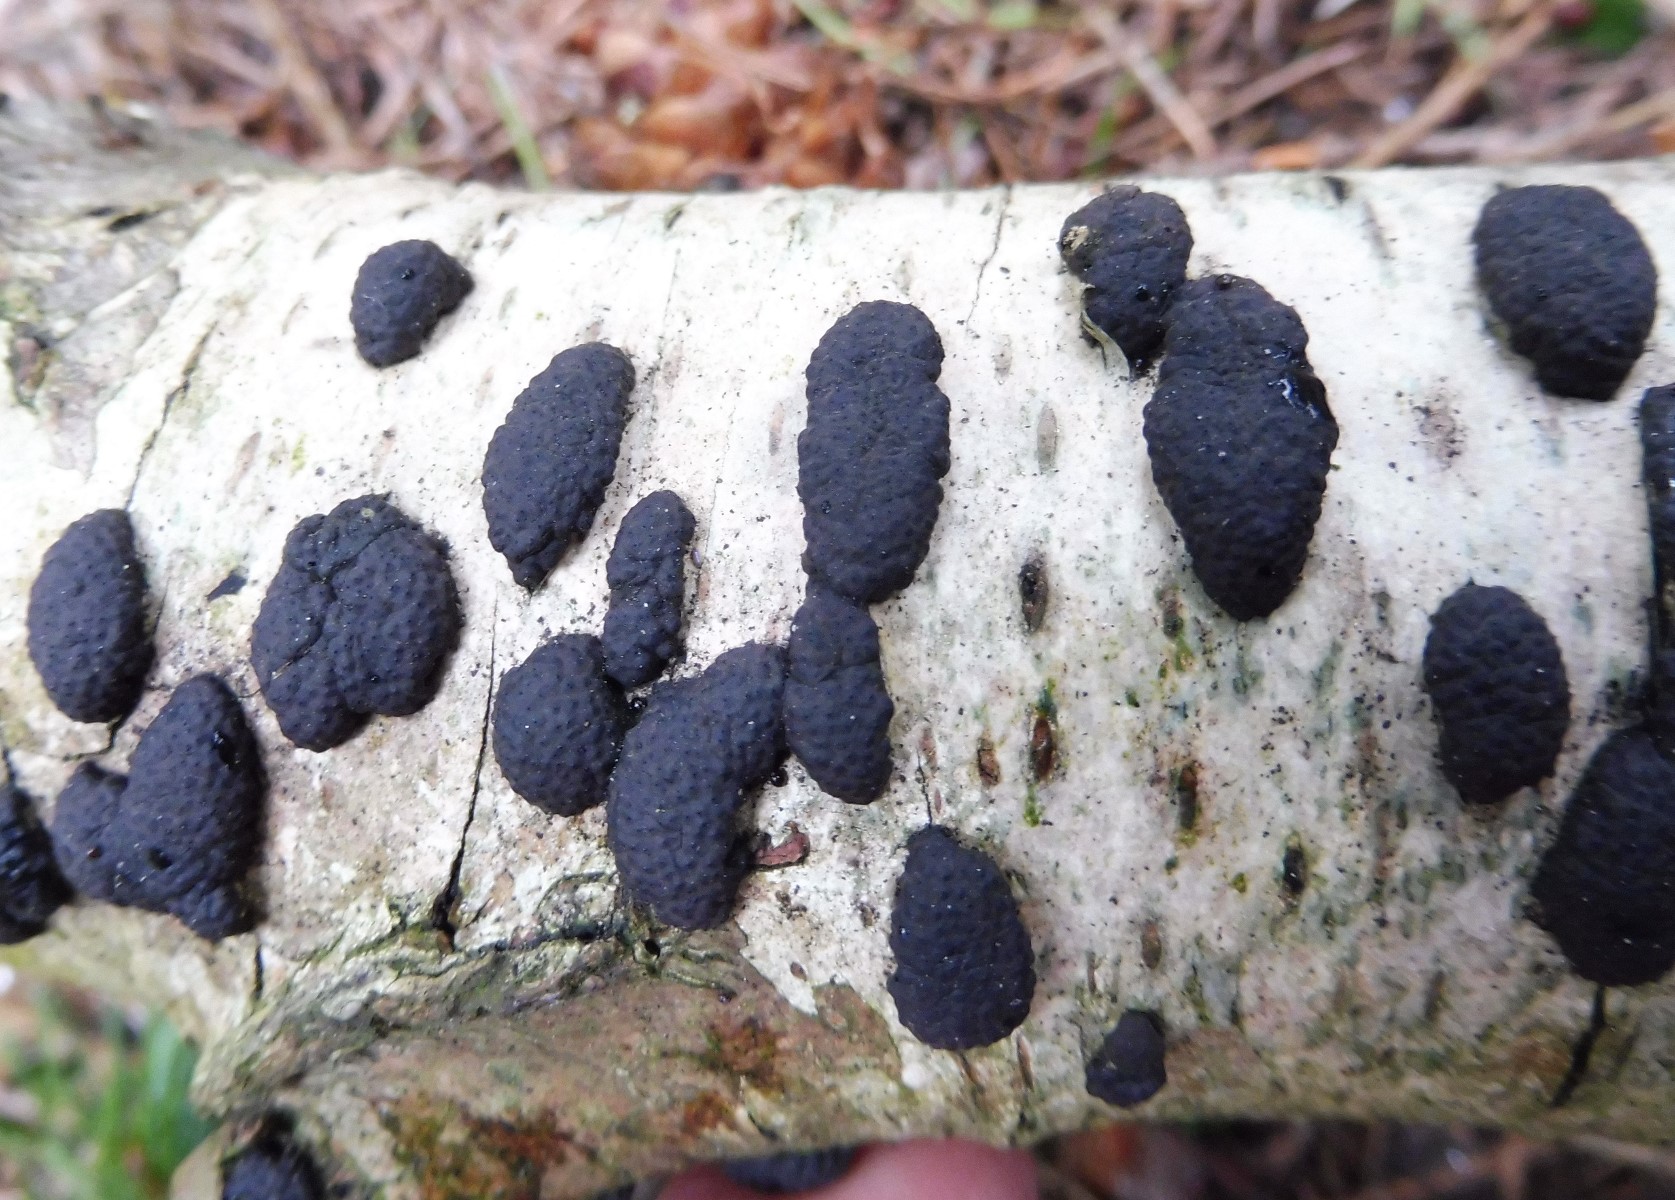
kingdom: Fungi
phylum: Ascomycota
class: Sordariomycetes
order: Xylariales
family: Hypoxylaceae
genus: Jackrogersella
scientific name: Jackrogersella multiformis
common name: foranderlig kulbær
